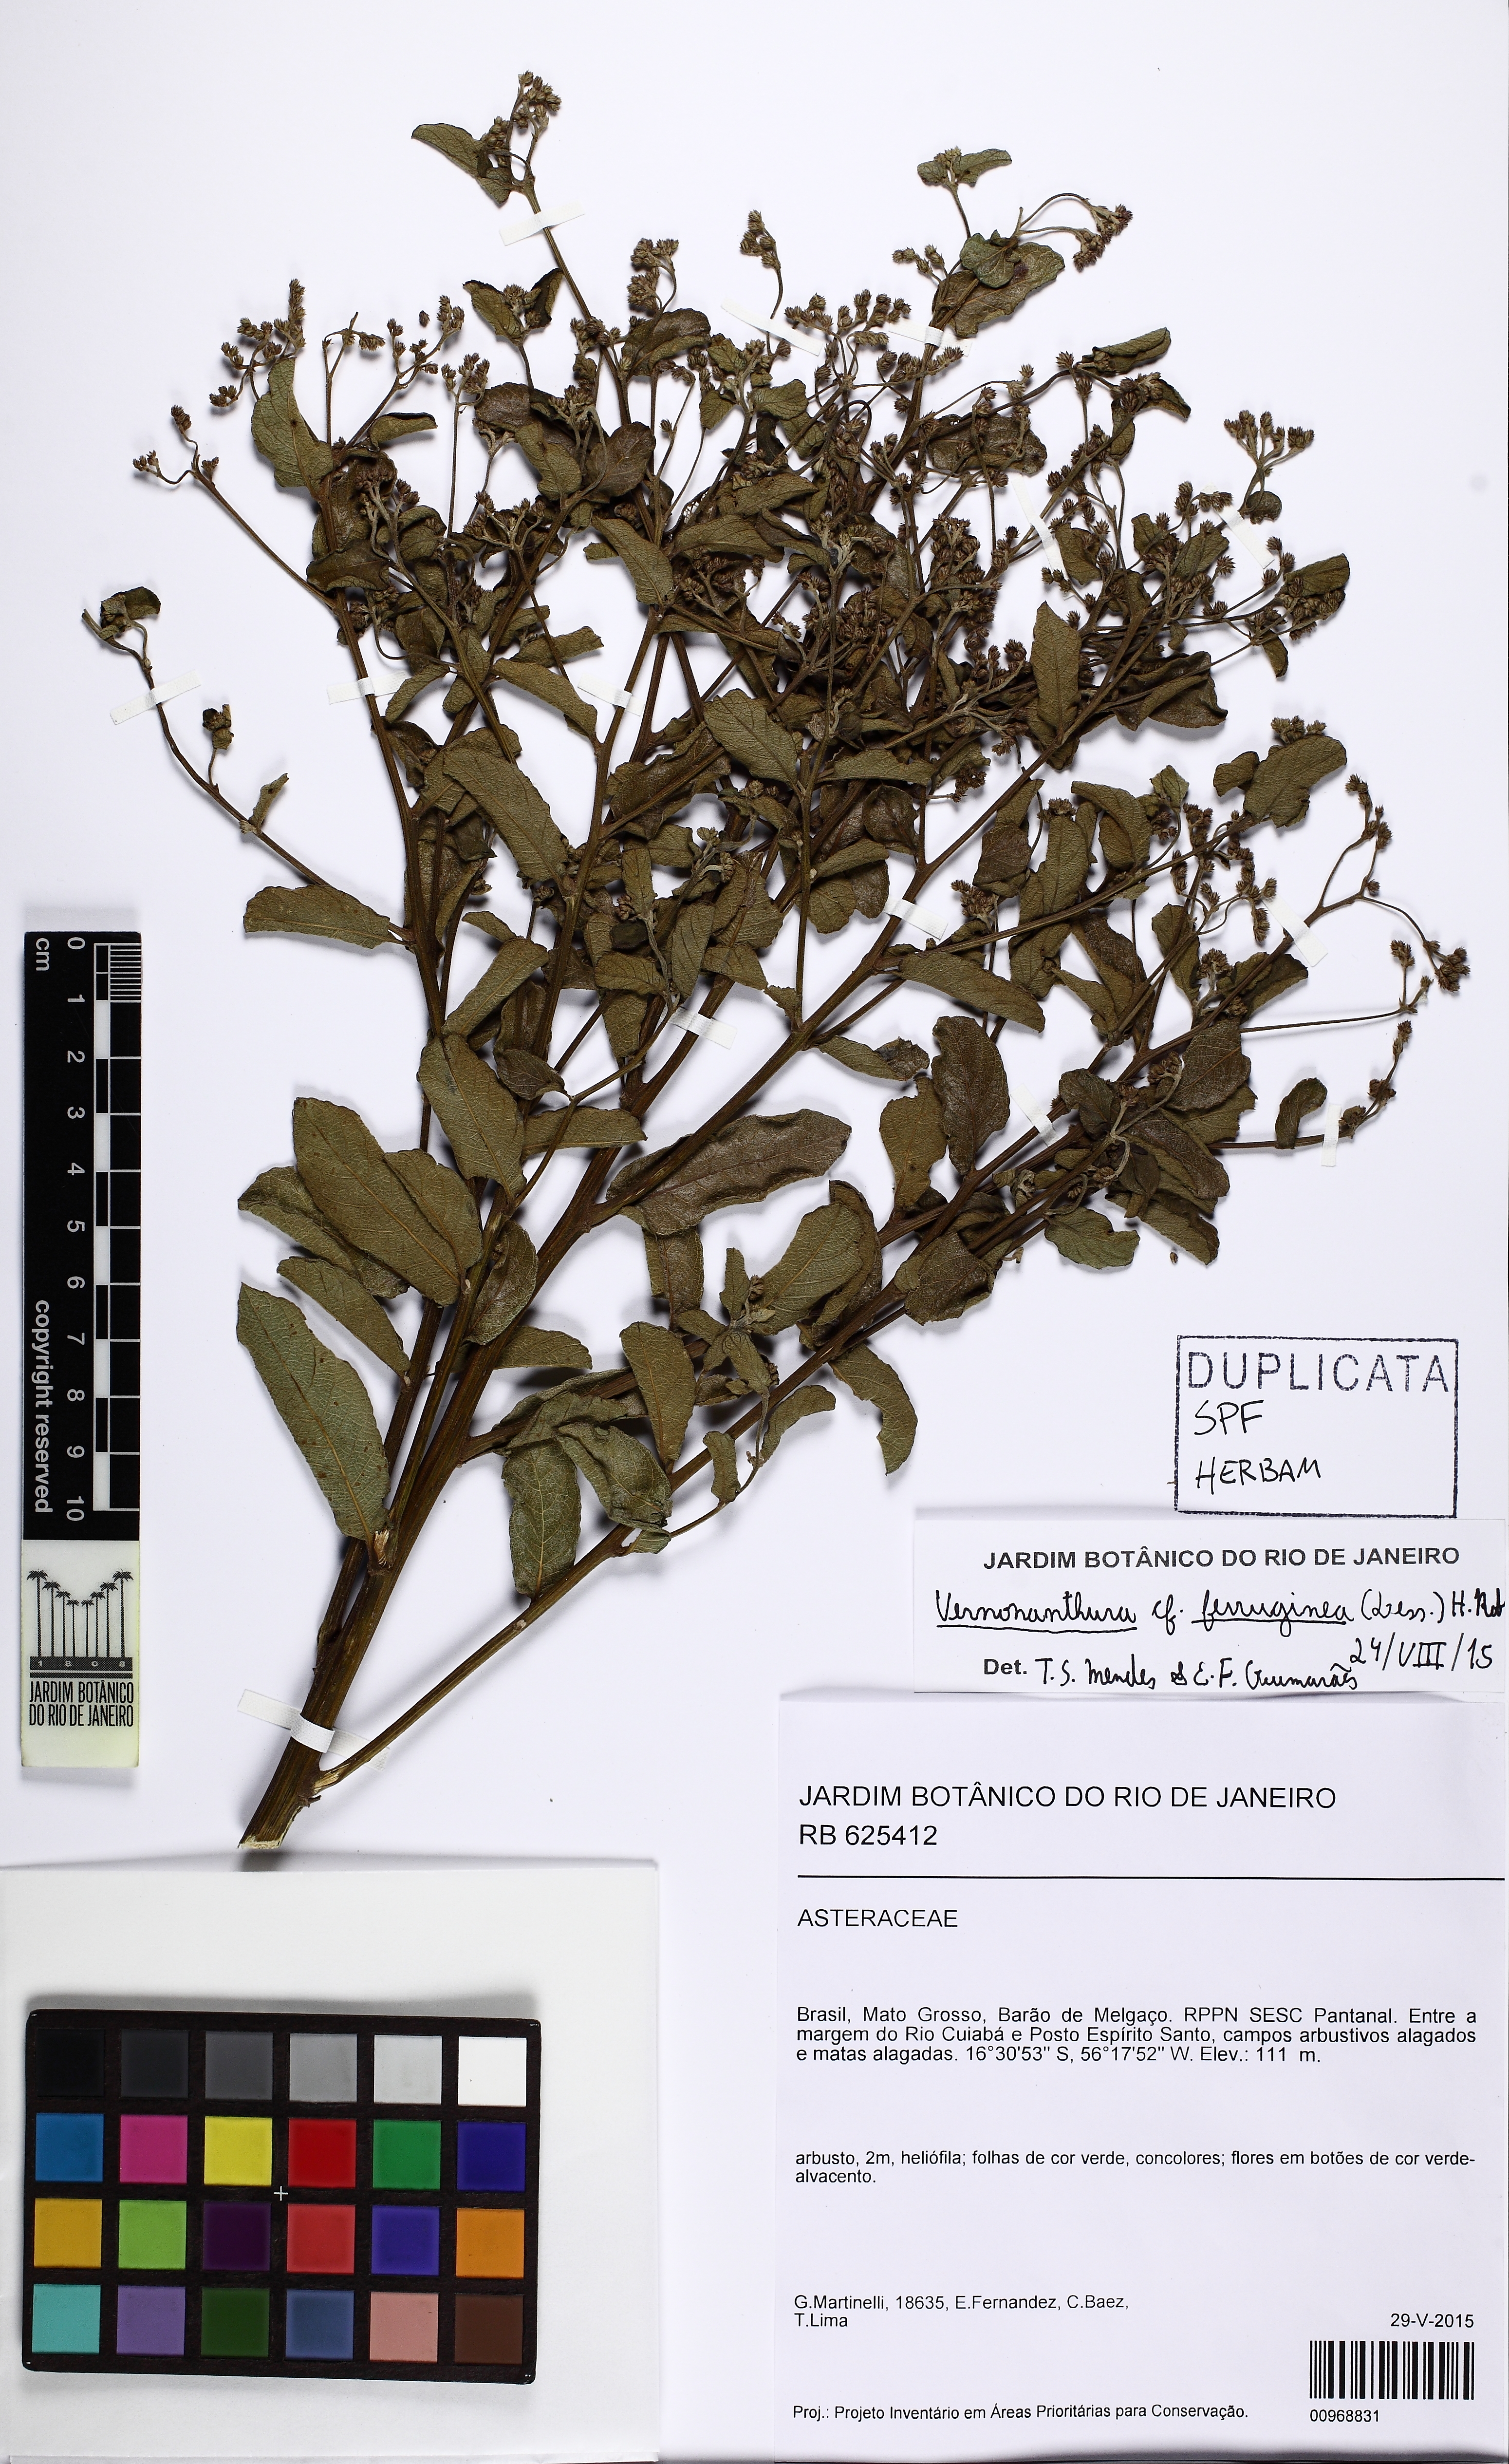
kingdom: Plantae
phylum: Tracheophyta
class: Magnoliopsida
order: Asterales
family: Asteraceae
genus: Vernonanthura
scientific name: Vernonanthura ferruginea
